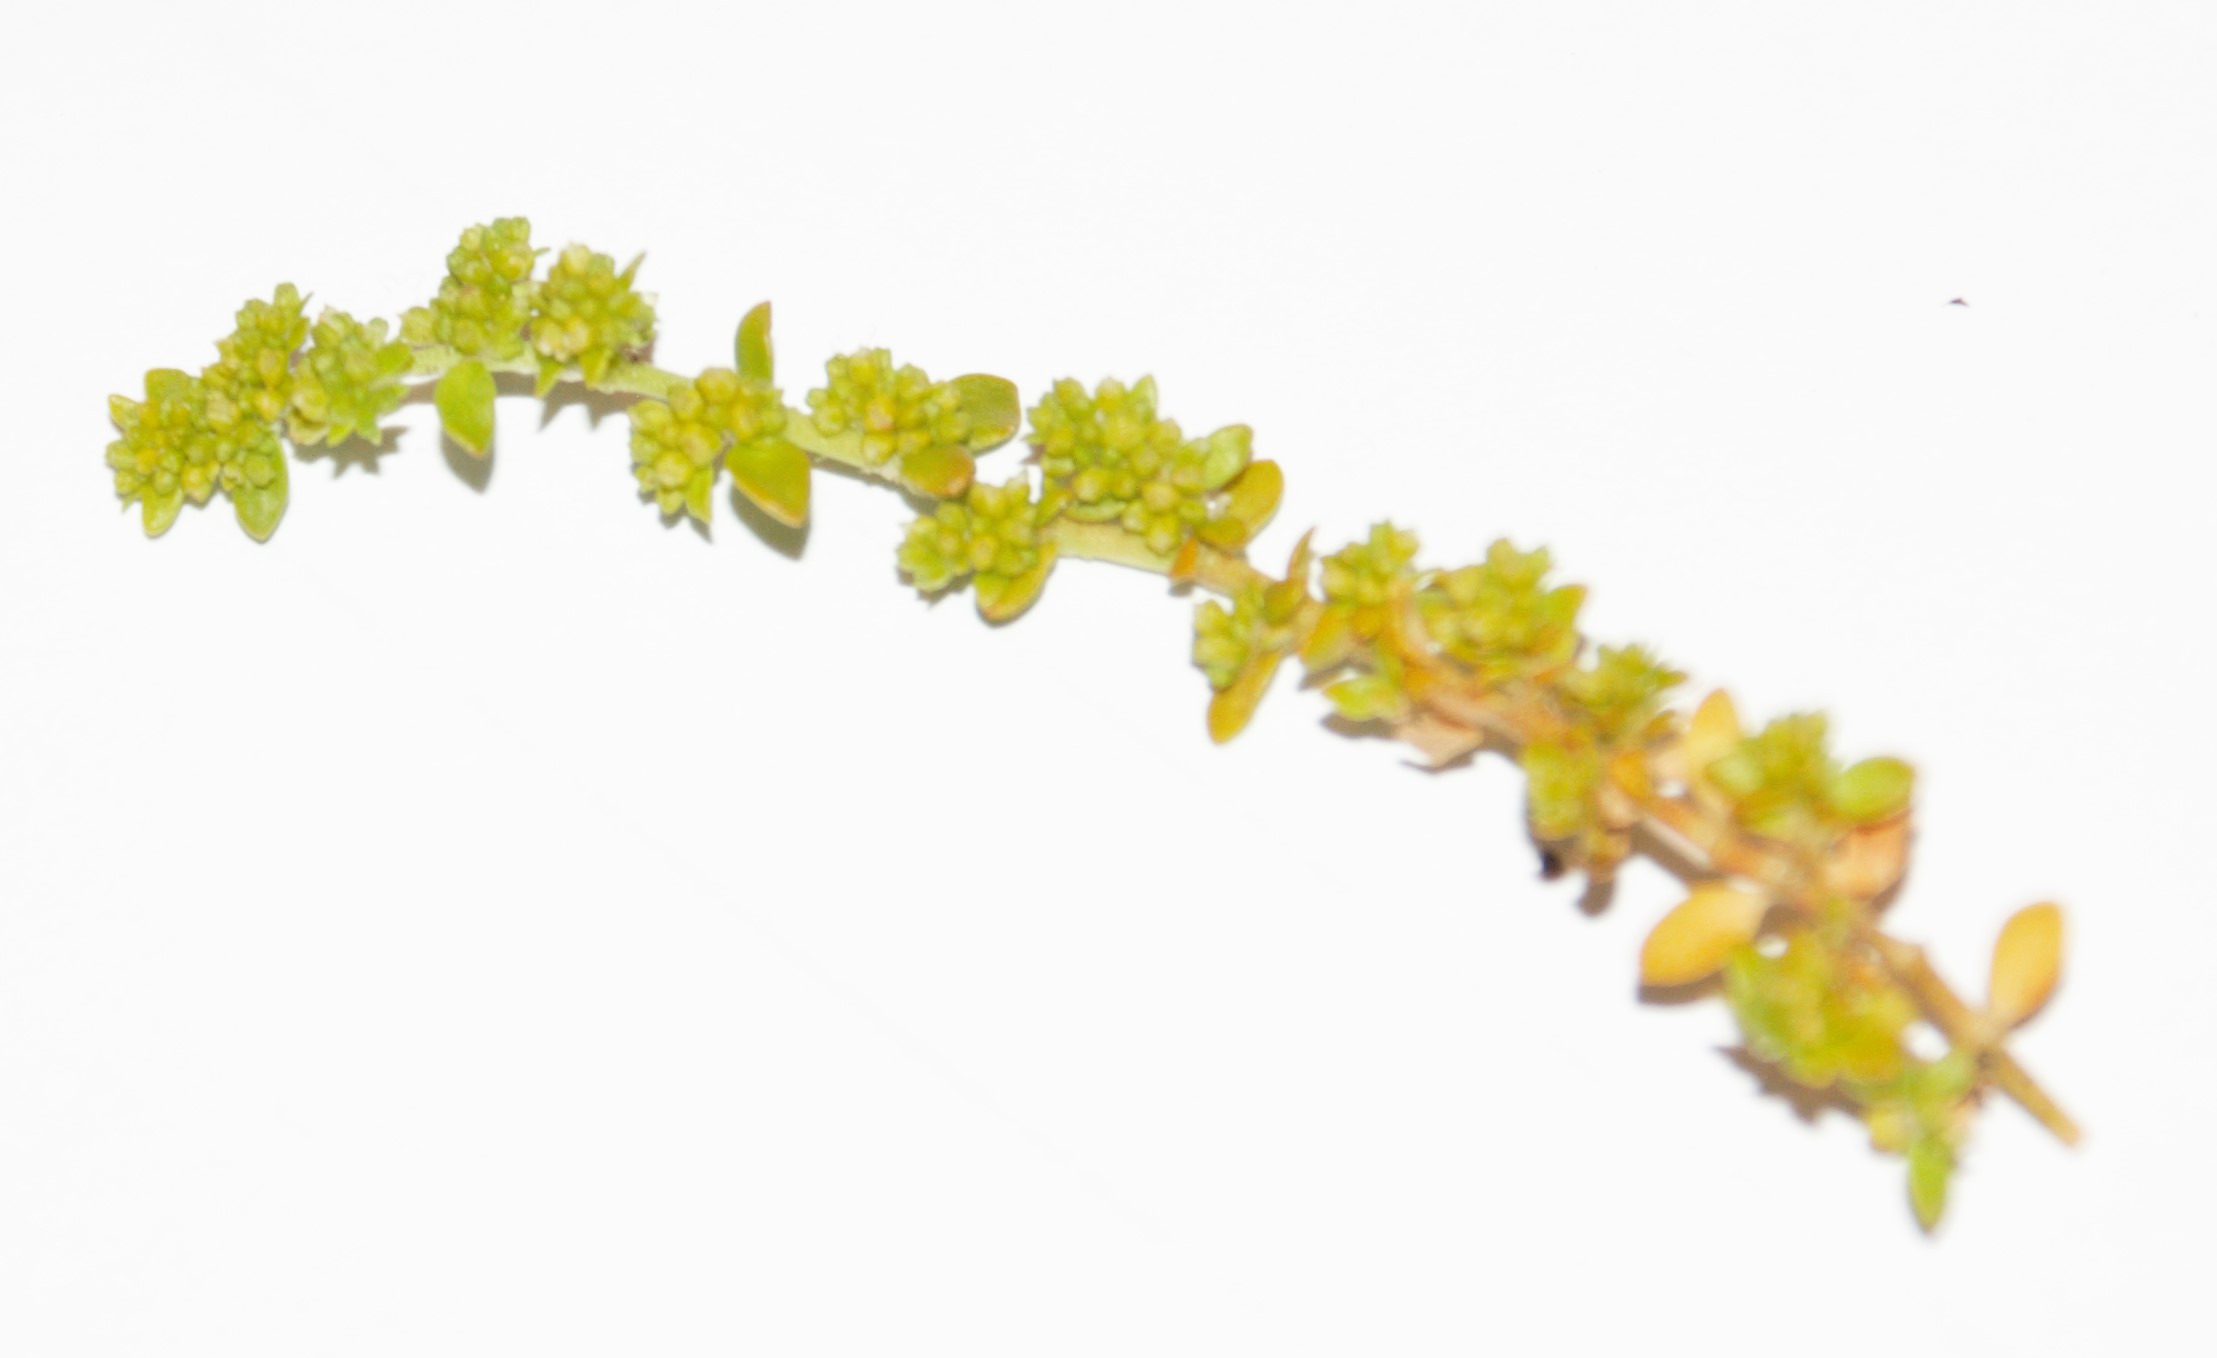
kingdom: Plantae
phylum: Tracheophyta
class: Magnoliopsida
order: Caryophyllales
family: Caryophyllaceae
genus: Herniaria
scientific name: Herniaria glabra
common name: Brudurt
